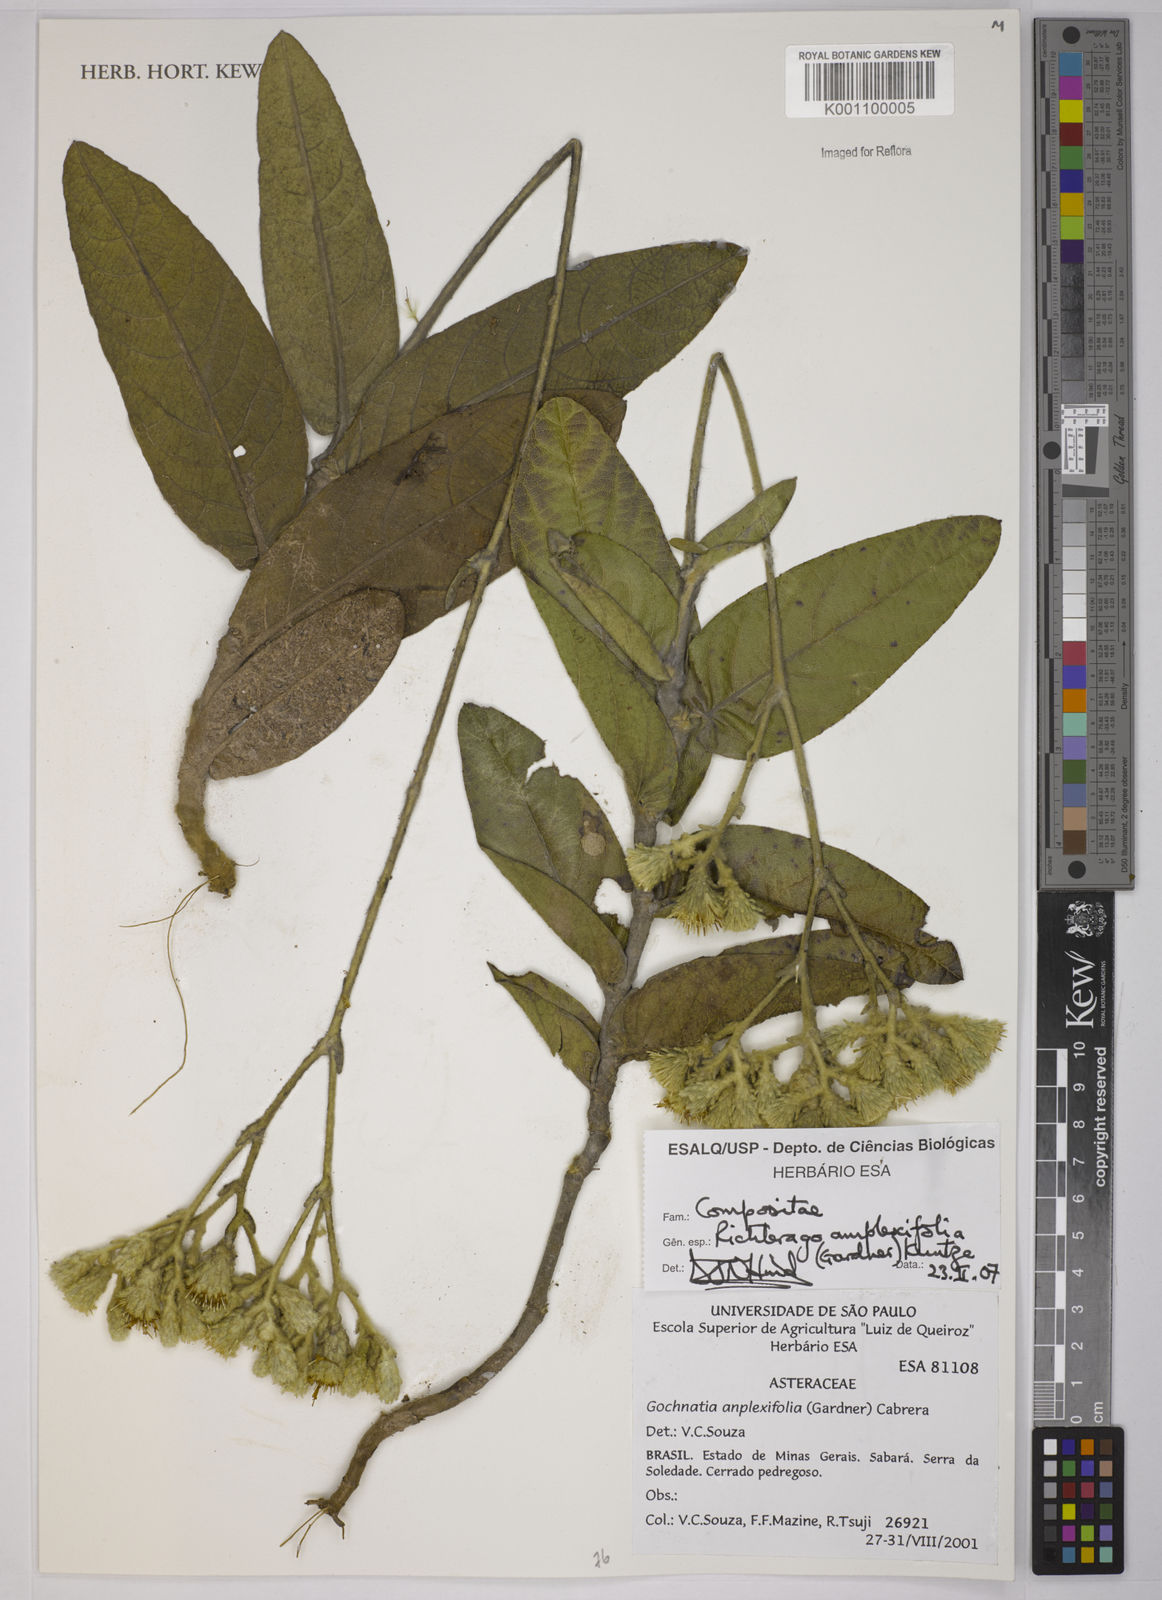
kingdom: Plantae
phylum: Tracheophyta
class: Magnoliopsida
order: Asterales
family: Asteraceae
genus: Richterago
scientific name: Richterago amplexifolia
